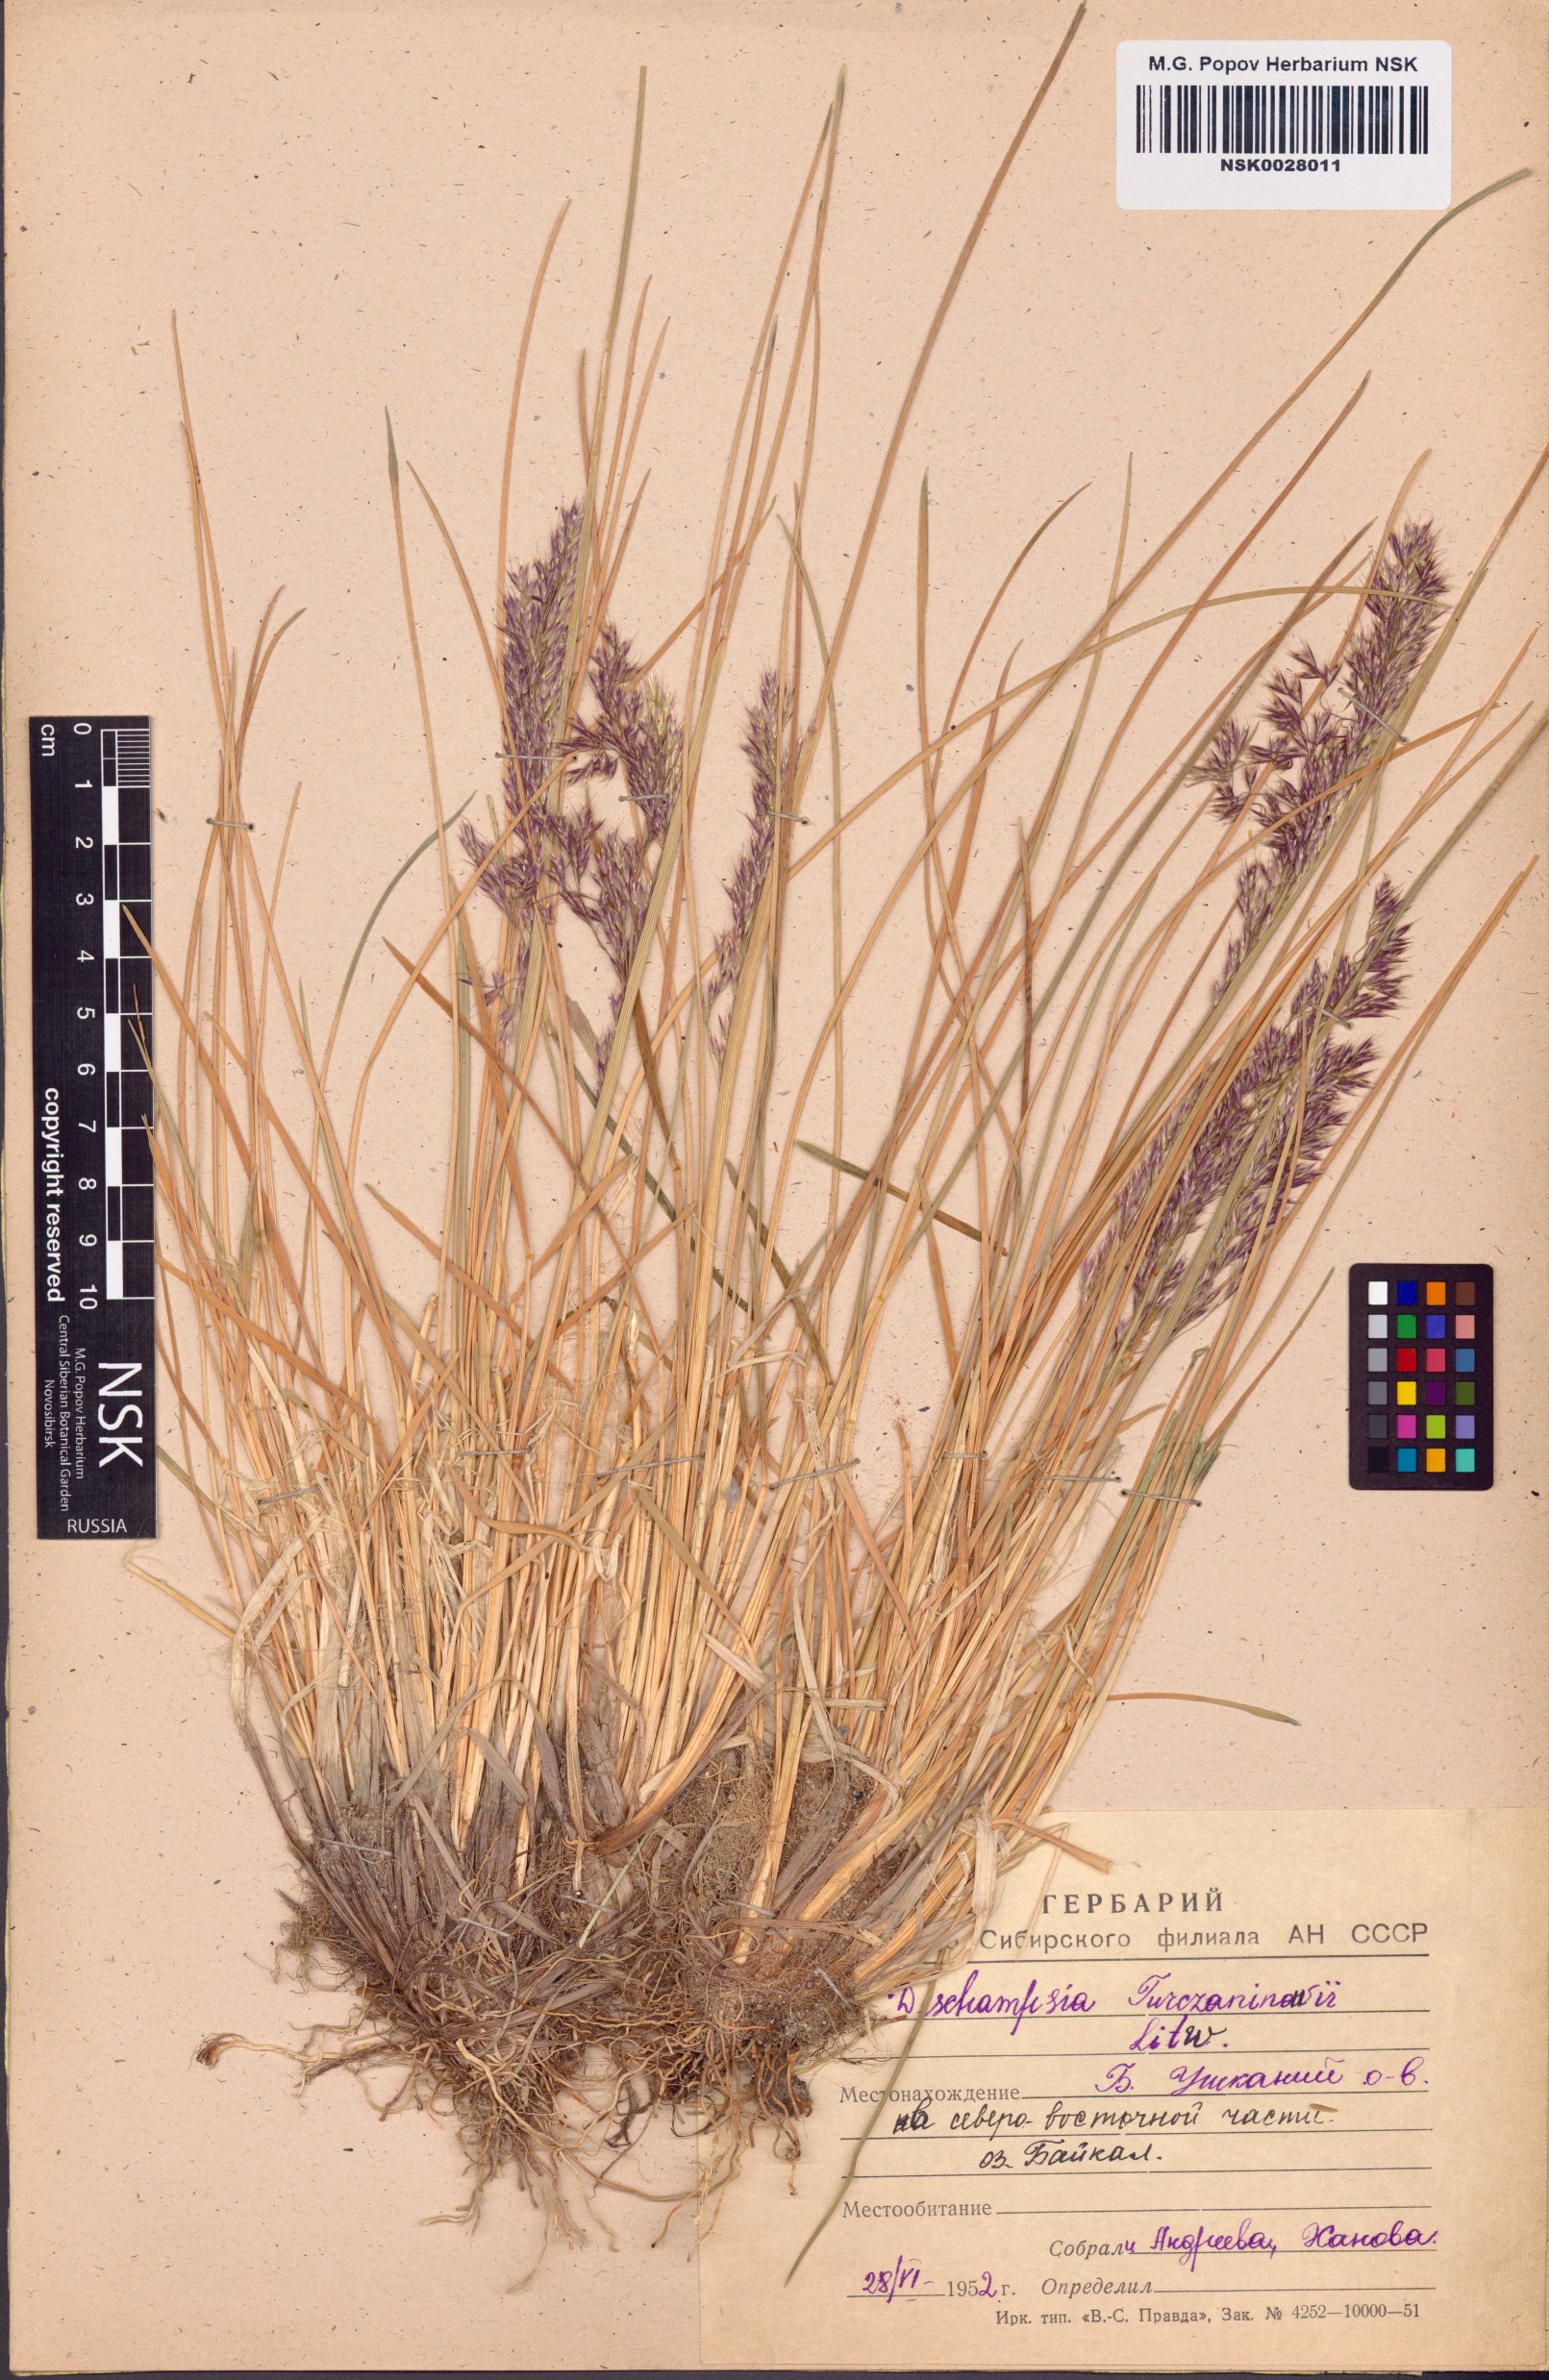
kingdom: Plantae
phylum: Tracheophyta
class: Liliopsida
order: Poales
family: Poaceae
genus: Deschampsia
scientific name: Deschampsia cespitosa
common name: Tufted hair-grass
